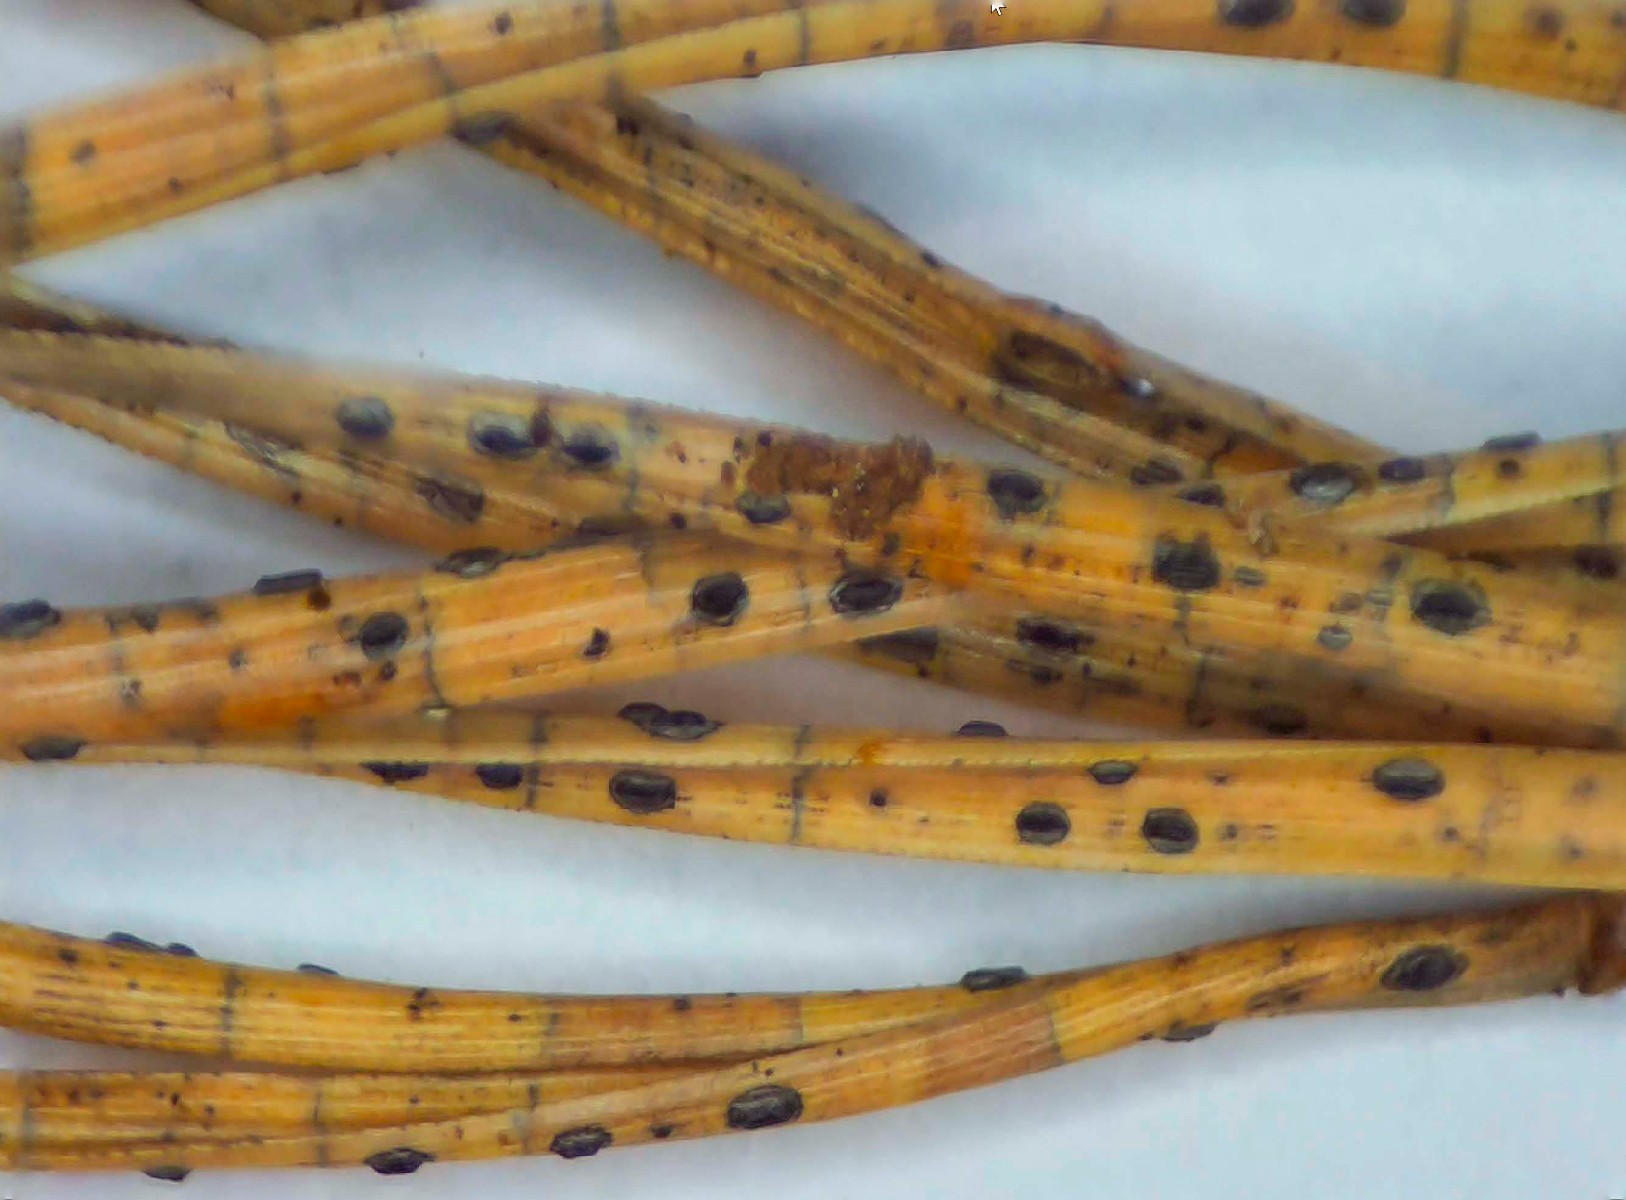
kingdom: Fungi
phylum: Ascomycota
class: Leotiomycetes
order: Rhytismatales
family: Rhytismataceae
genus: Lophodermium
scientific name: Lophodermium pinastri
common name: fyrre-fureplet
